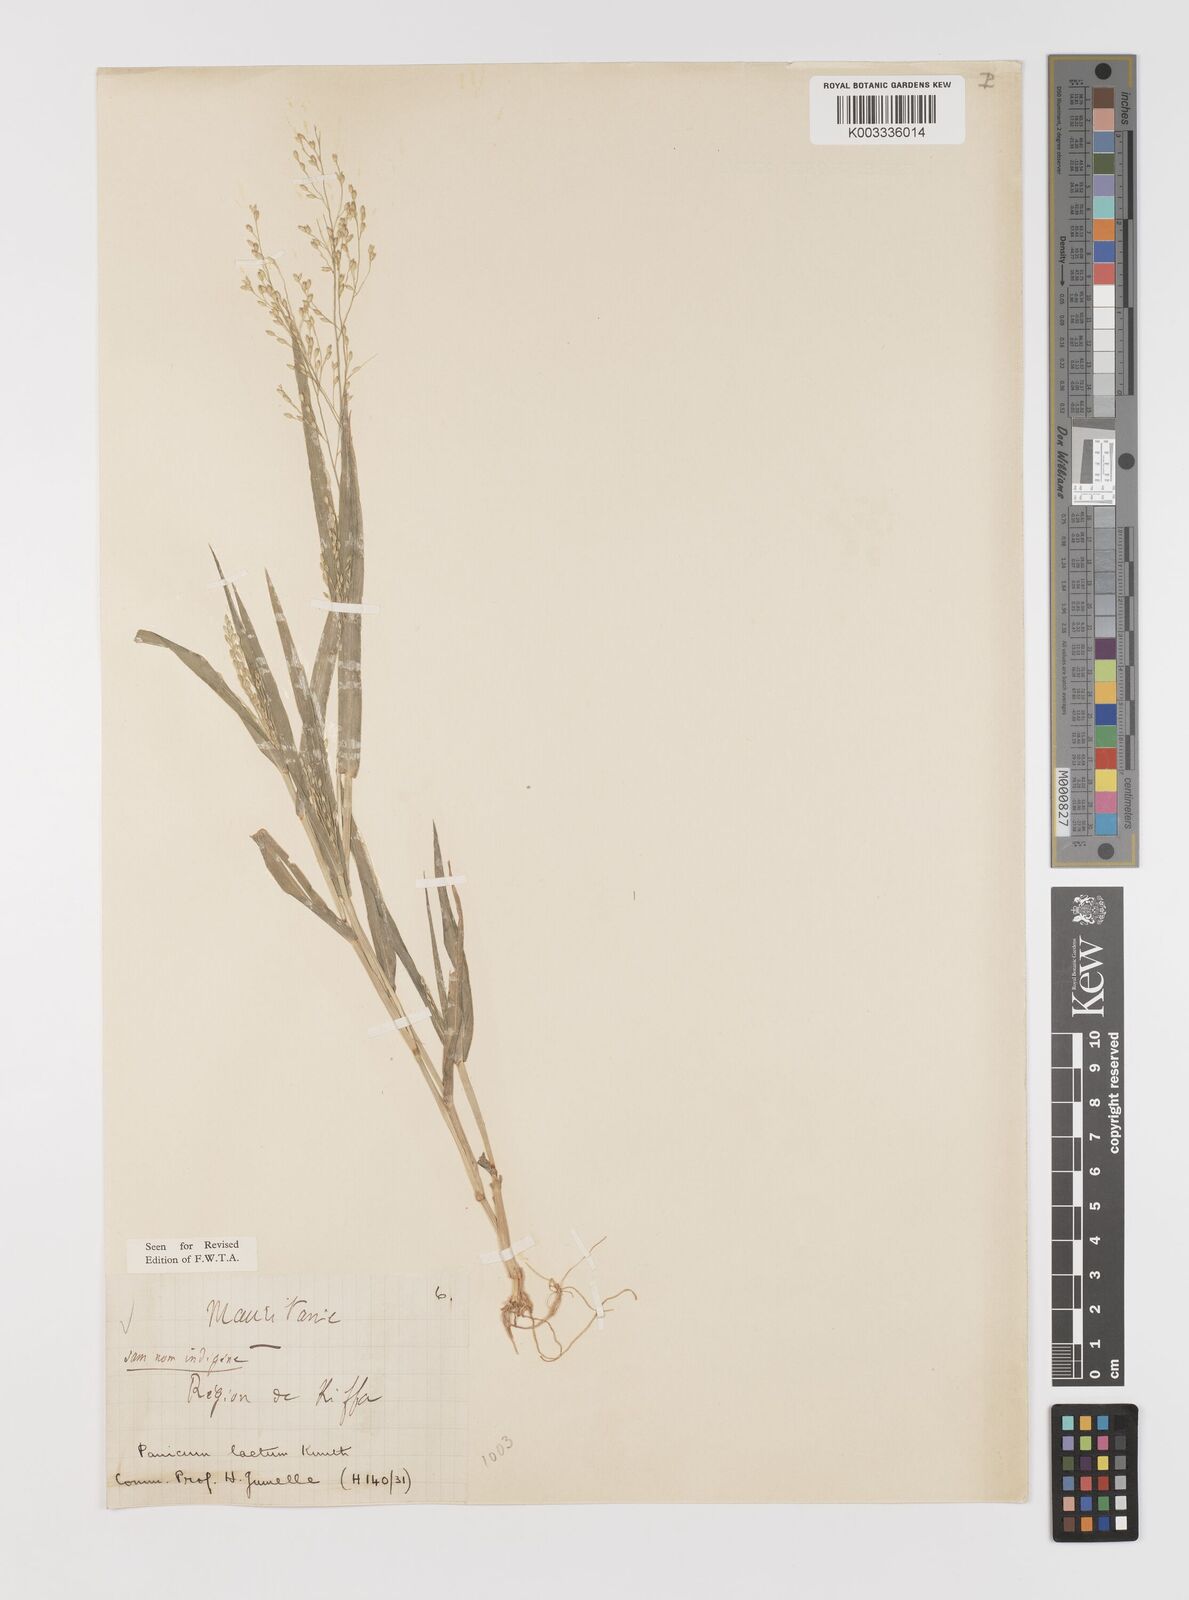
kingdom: Plantae
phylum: Tracheophyta
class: Liliopsida
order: Poales
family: Poaceae
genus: Panicum
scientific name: Panicum laetum
